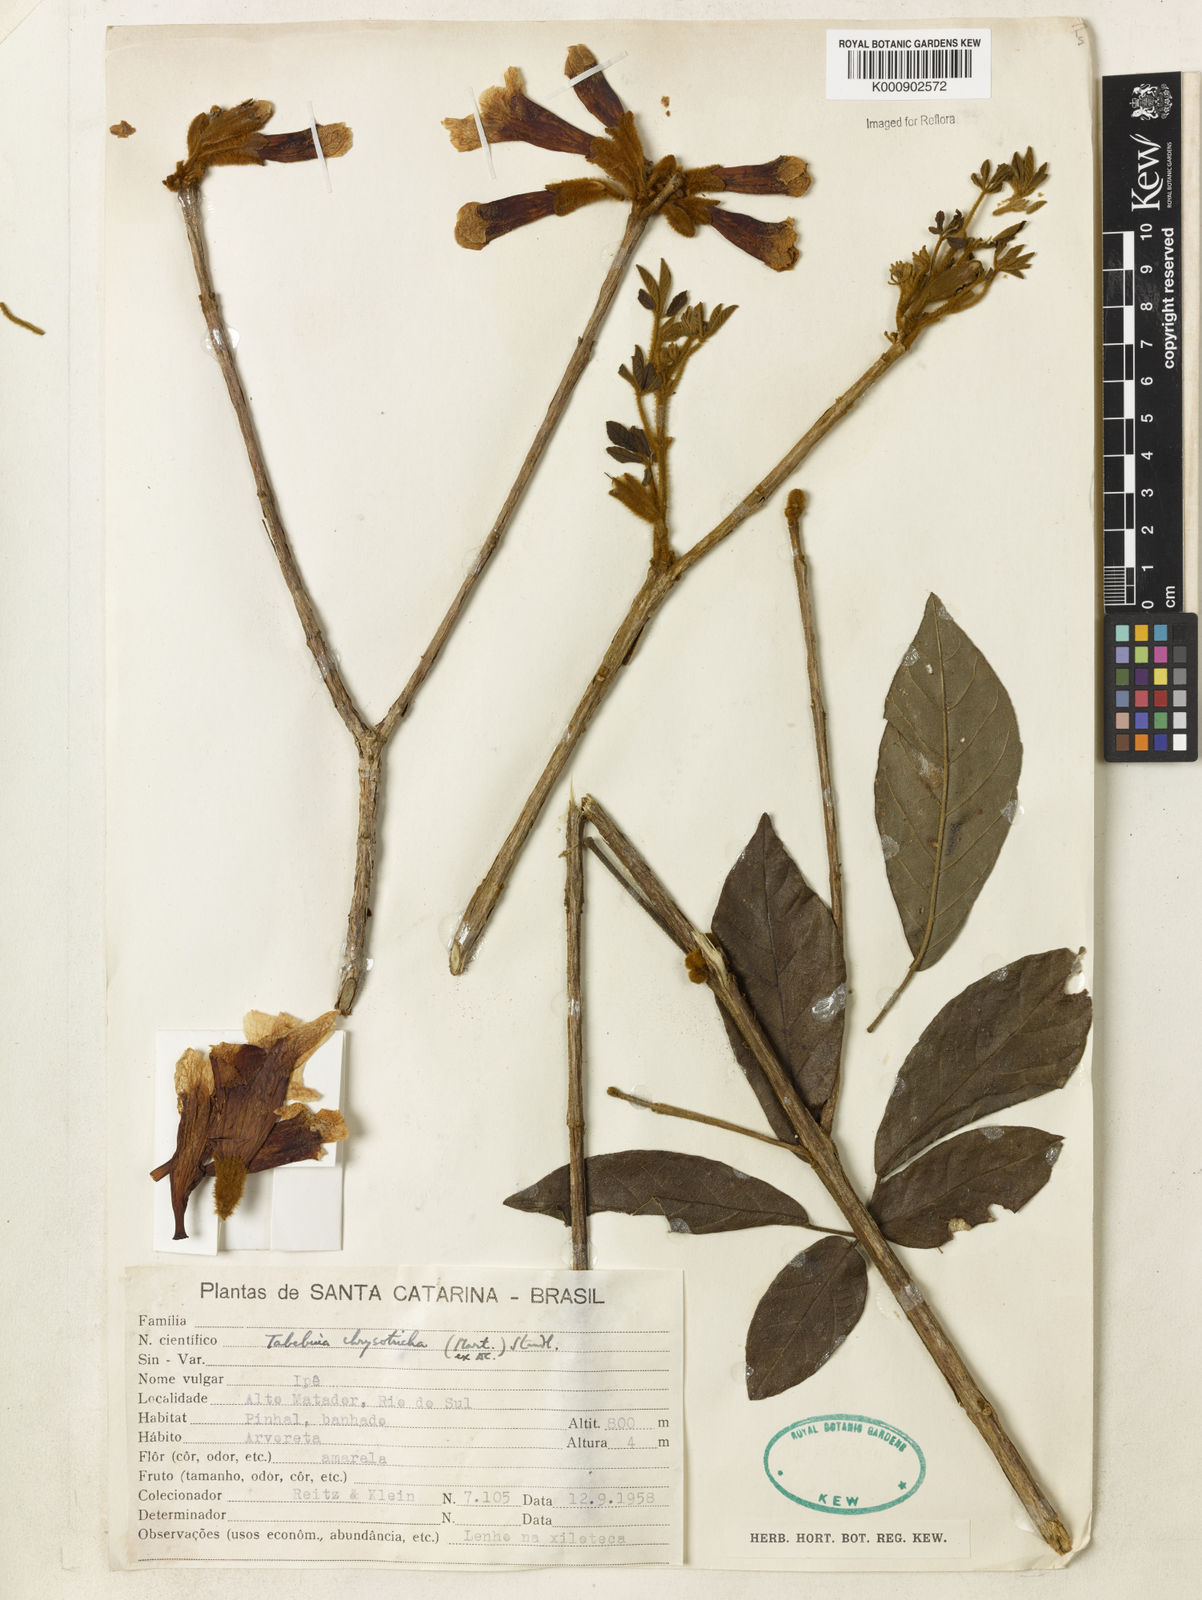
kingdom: Plantae
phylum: Tracheophyta
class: Magnoliopsida
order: Lamiales
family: Bignoniaceae
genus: Handroanthus
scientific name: Handroanthus chrysotrichus
